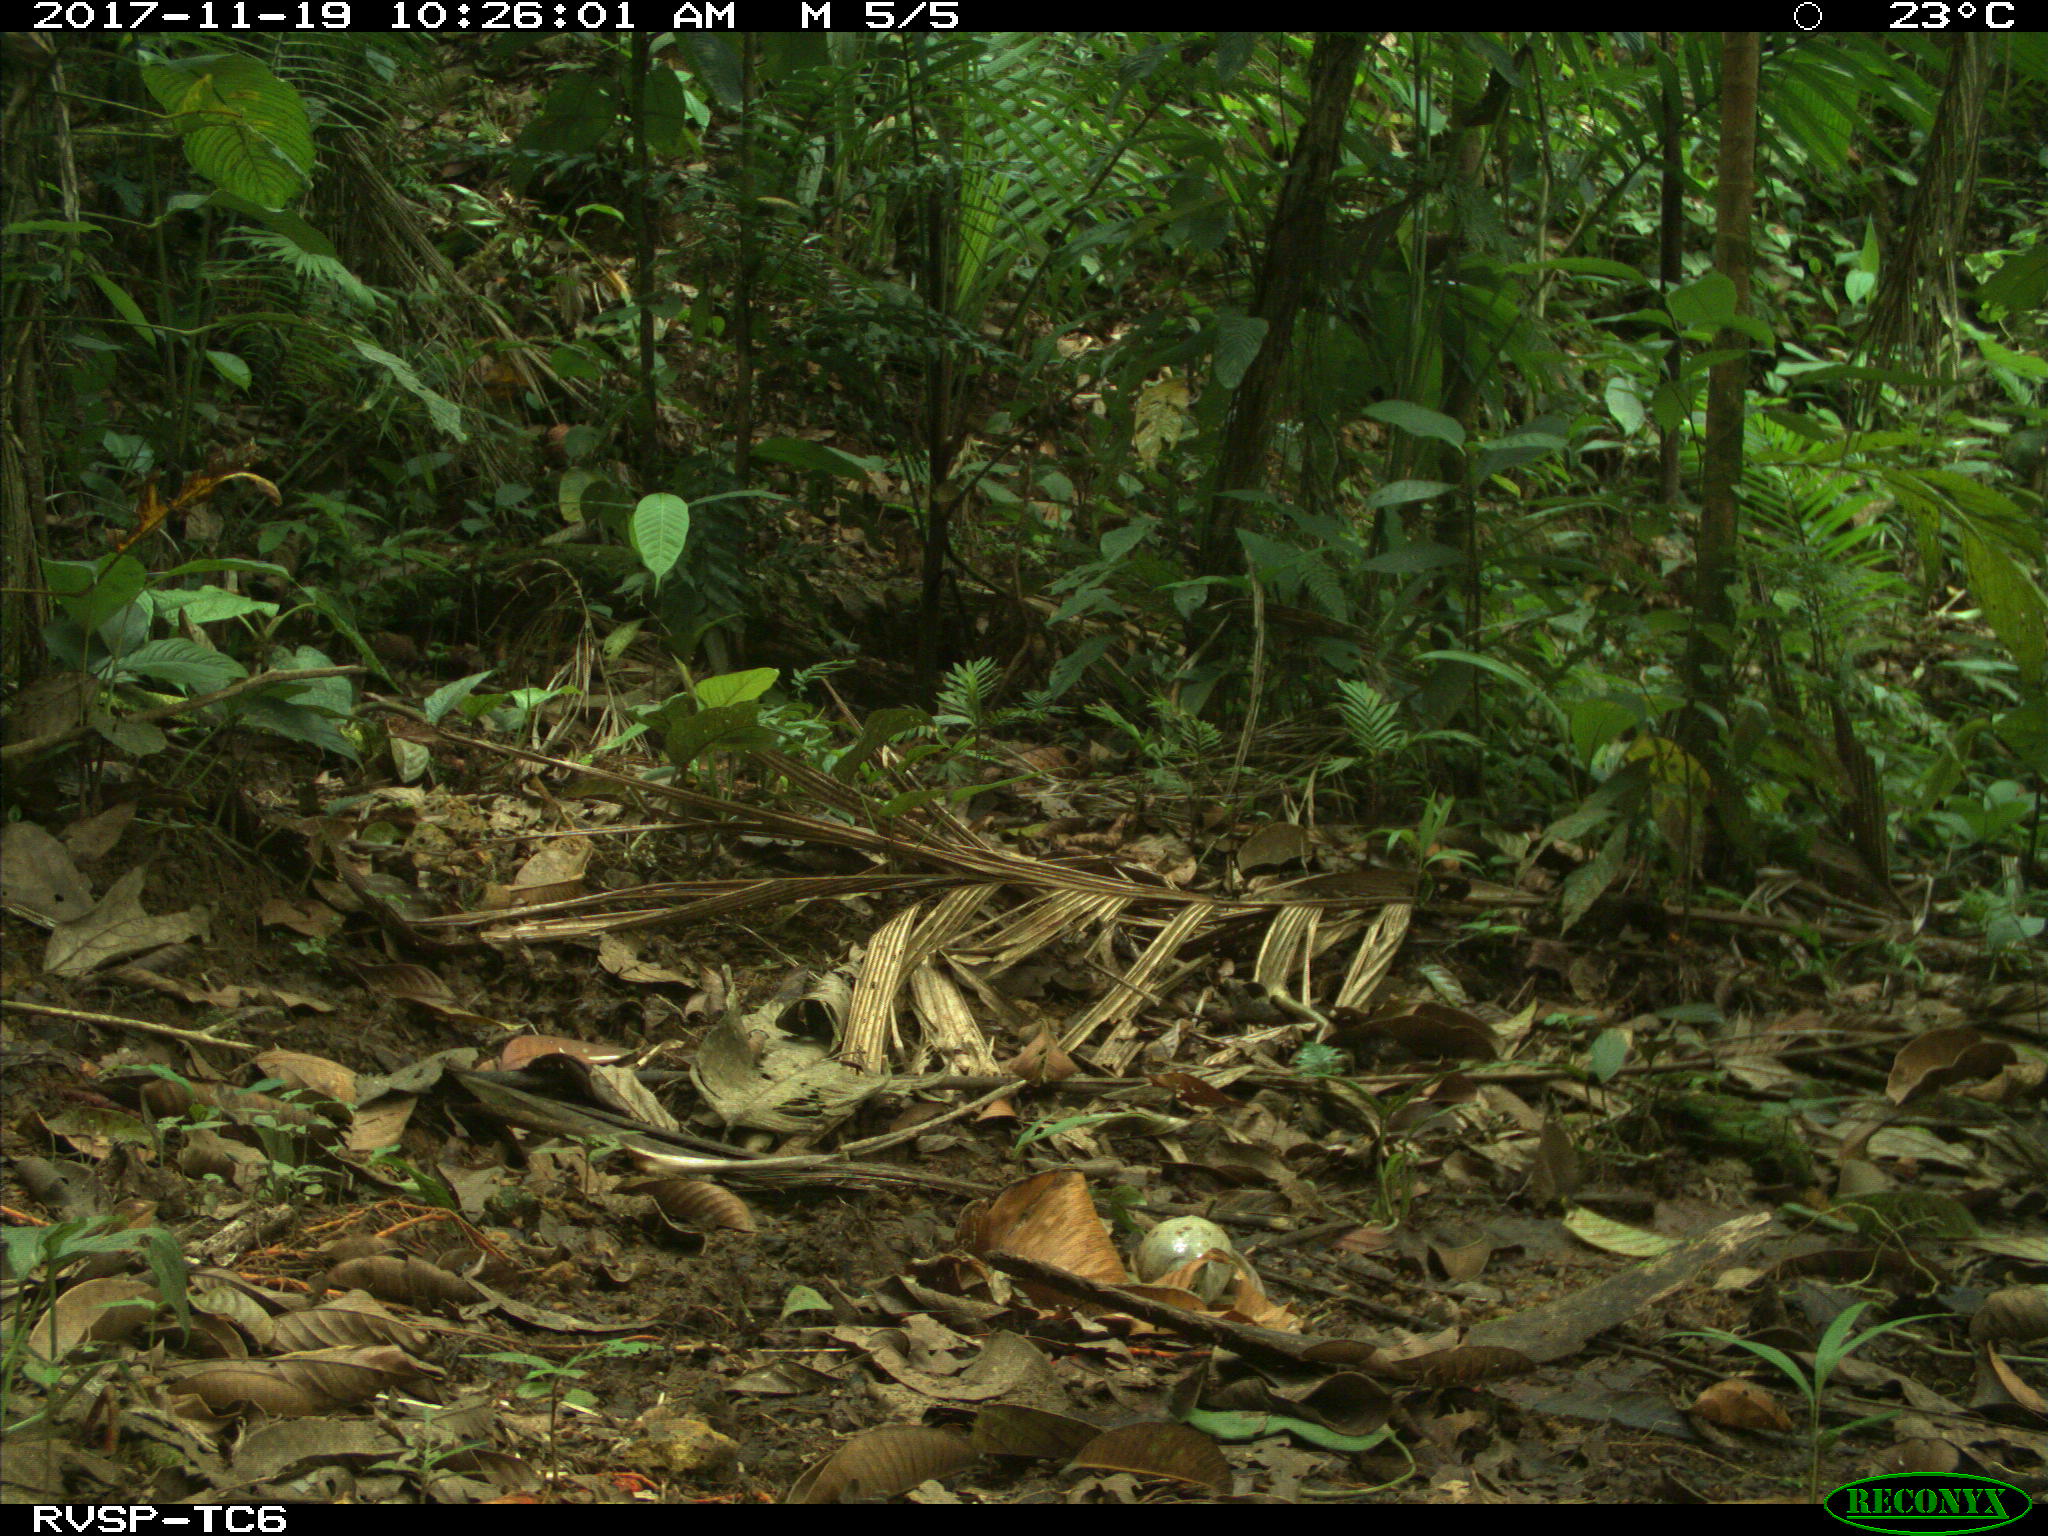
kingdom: Animalia
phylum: Chordata
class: Mammalia
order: Rodentia
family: Dasyproctidae
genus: Dasyprocta
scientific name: Dasyprocta punctata
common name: Central american agouti
